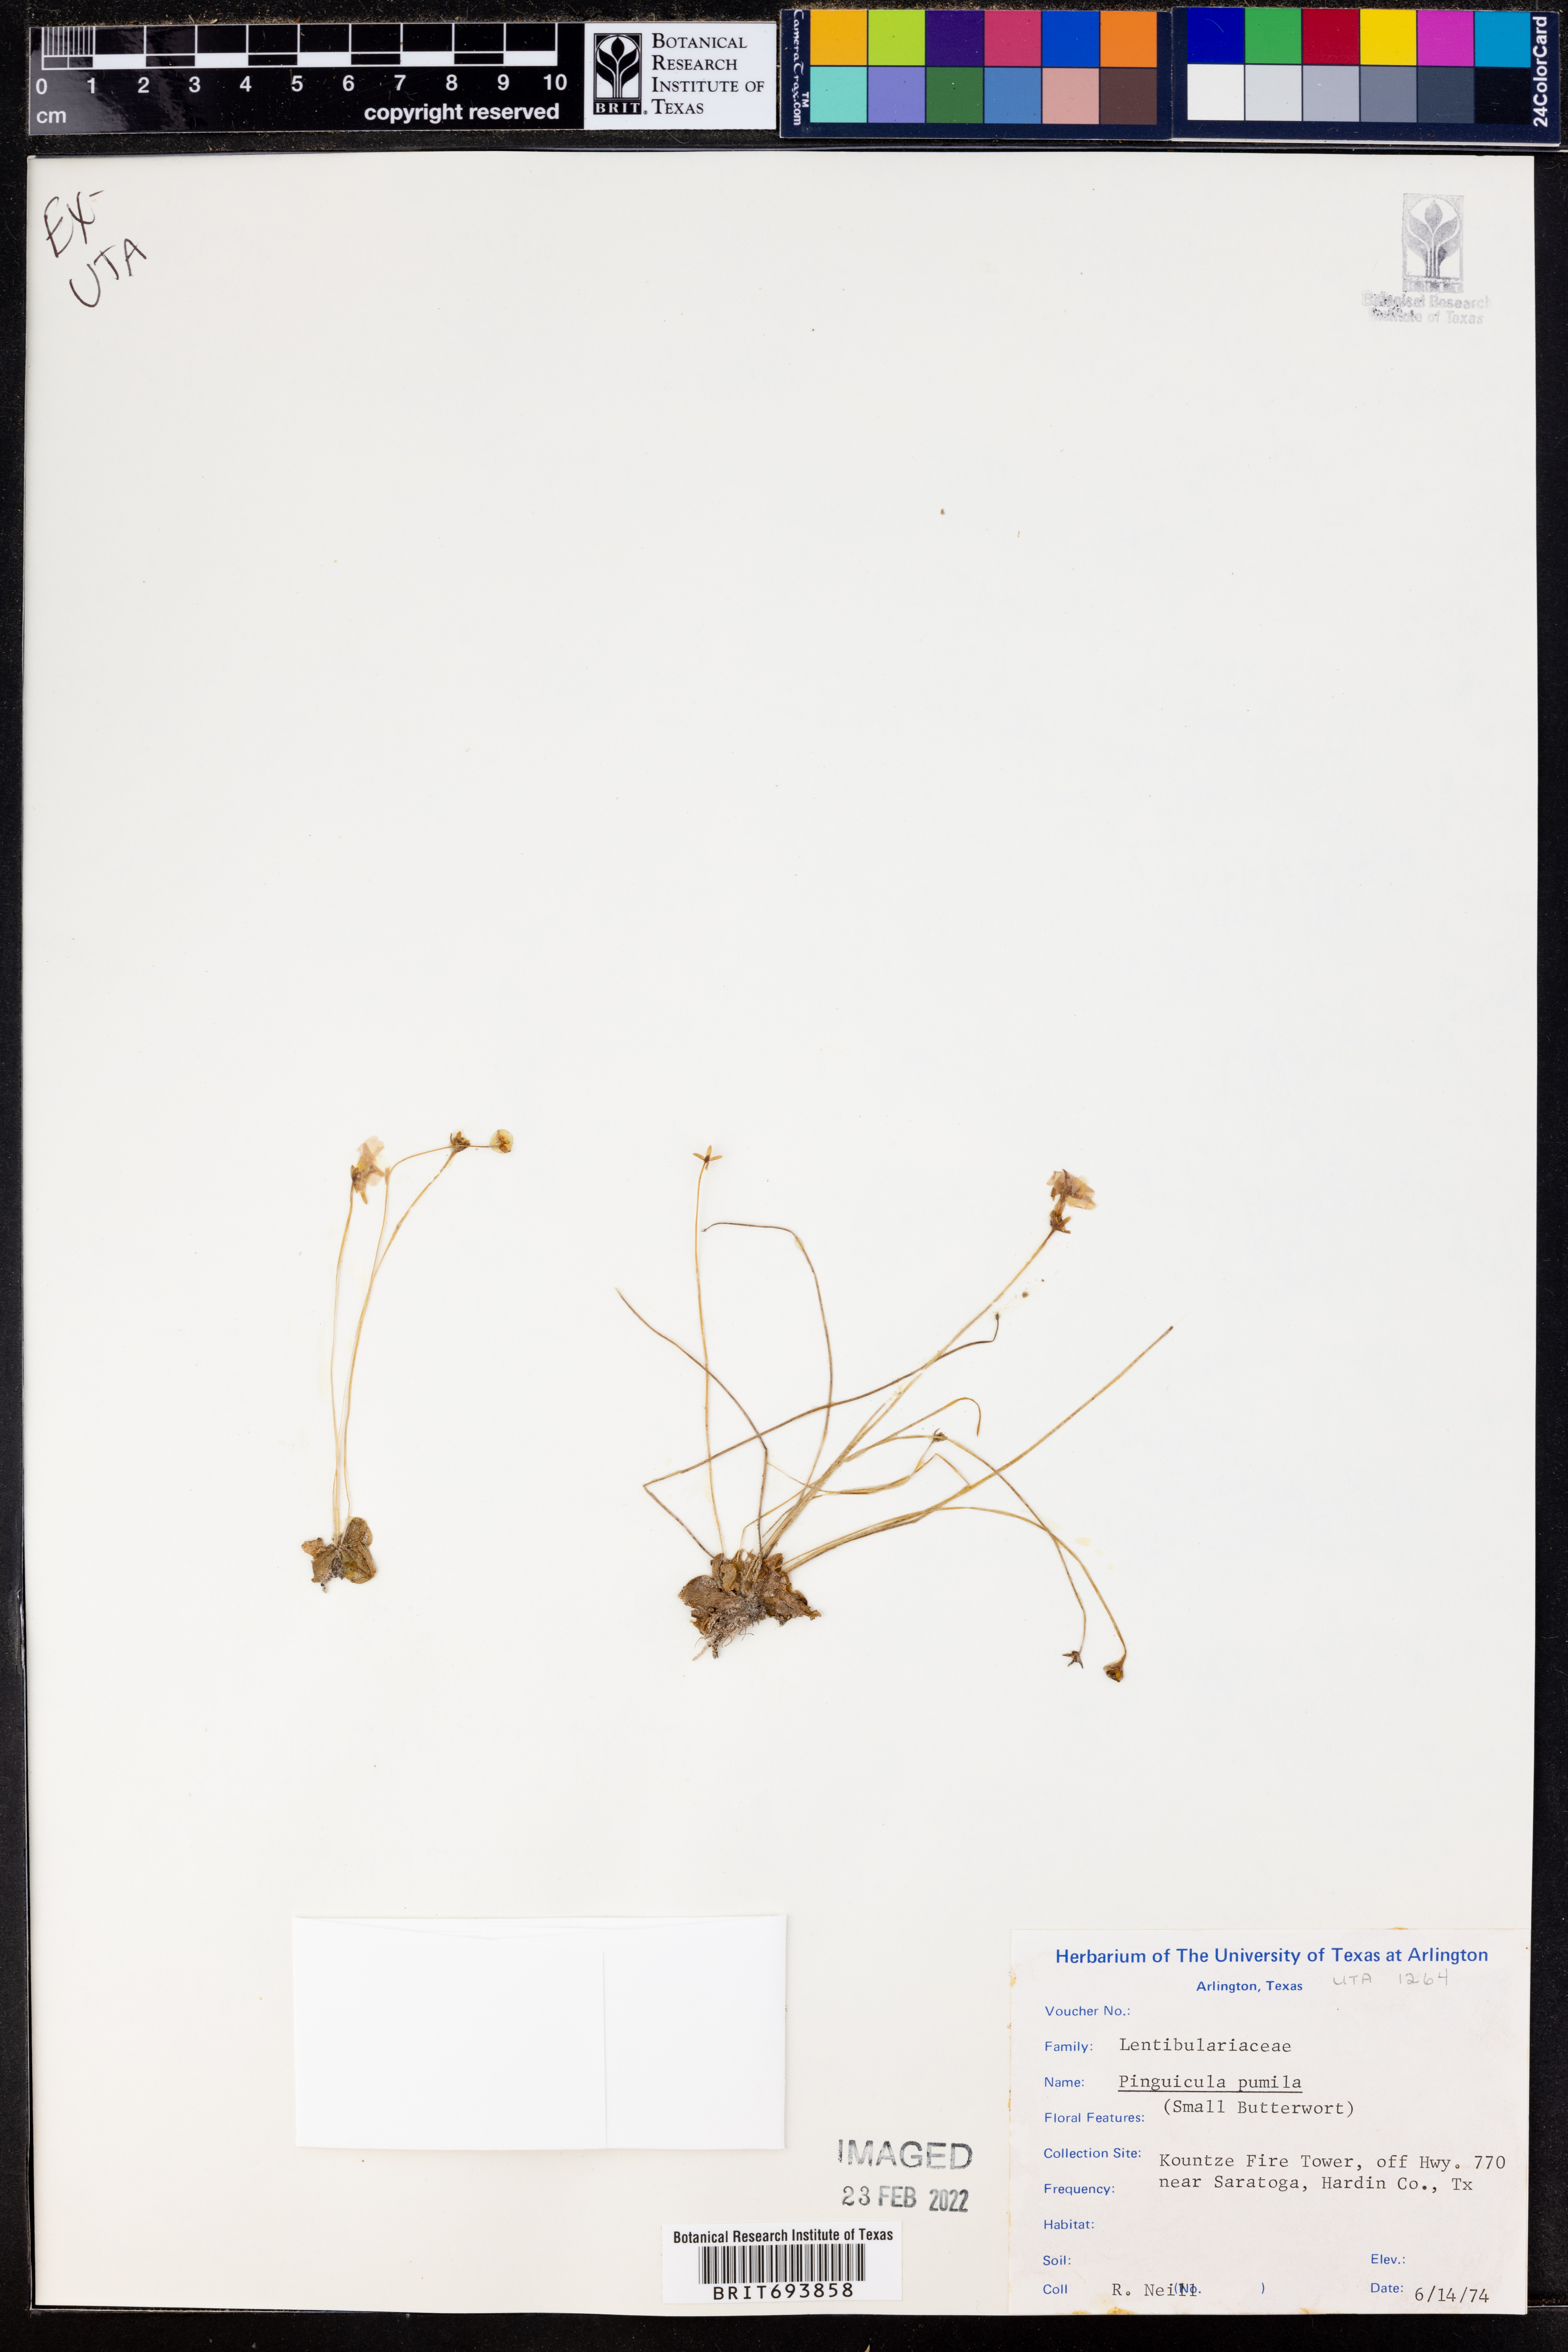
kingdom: Plantae
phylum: Tracheophyta
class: Magnoliopsida
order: Lamiales
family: Lentibulariaceae
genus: Pinguicula
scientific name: Pinguicula pumila
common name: Small butterwort
